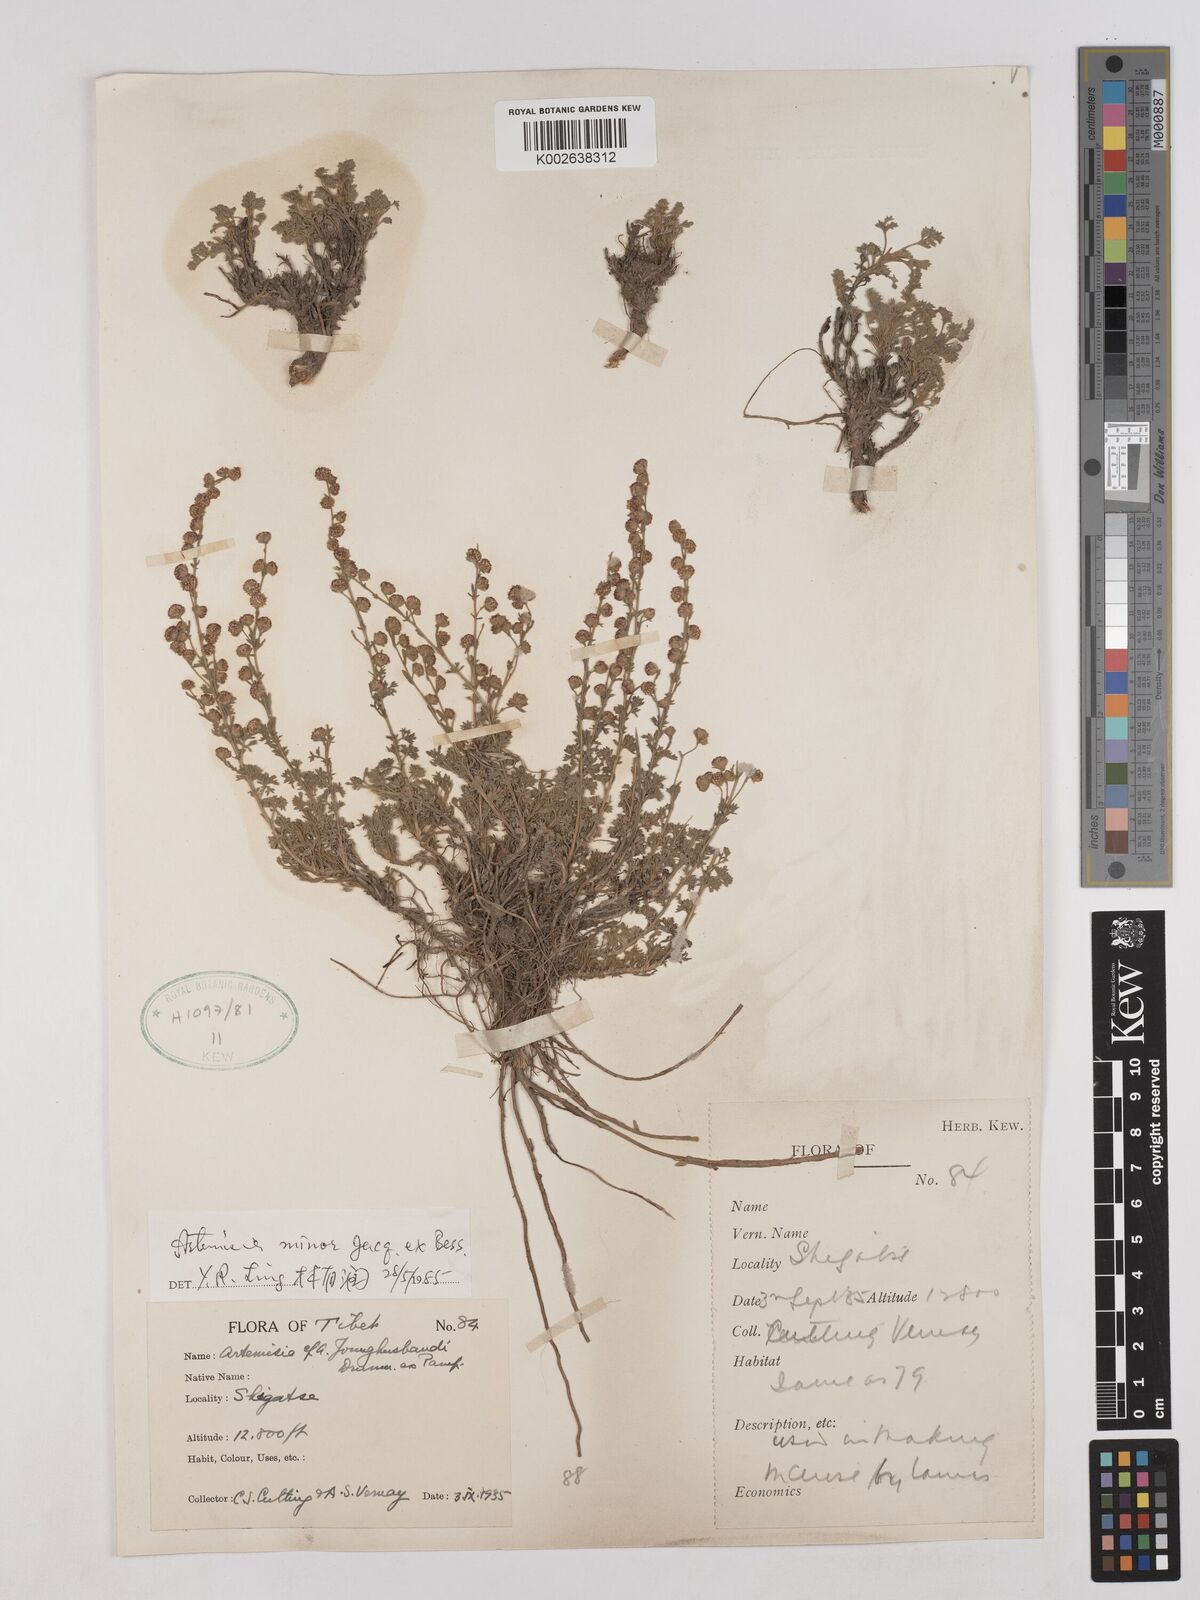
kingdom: Plantae
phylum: Tracheophyta
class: Magnoliopsida
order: Asterales
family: Asteraceae
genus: Artemisia
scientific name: Artemisia minor
